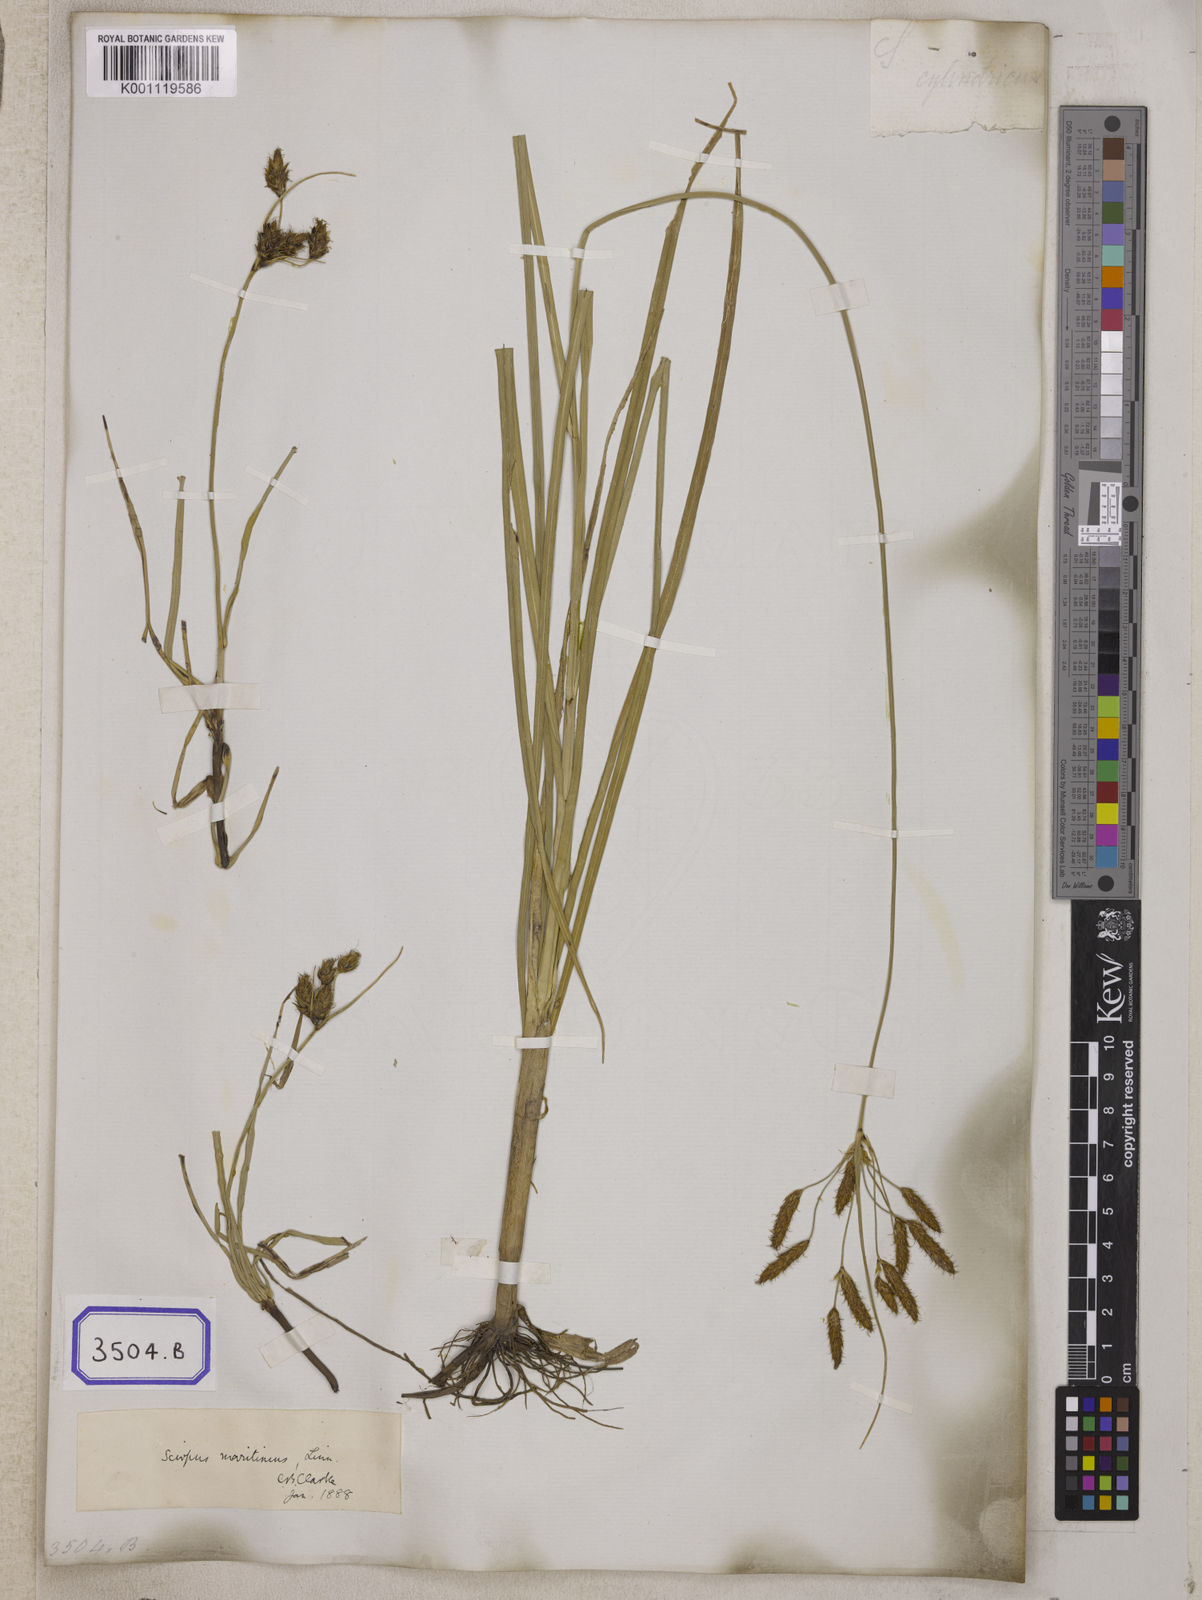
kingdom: Plantae
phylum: Tracheophyta
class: Liliopsida
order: Poales
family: Cyperaceae
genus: Fimbristylis
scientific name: Fimbristylis
